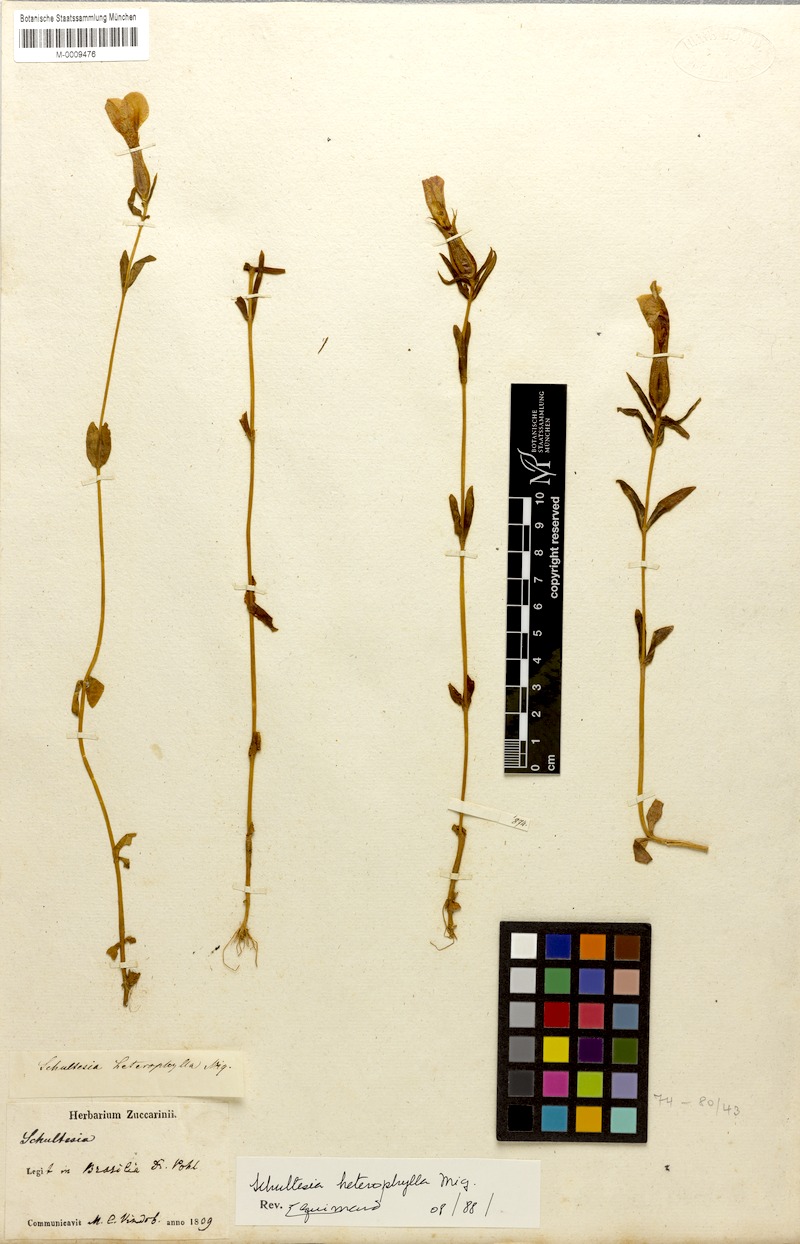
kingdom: Plantae
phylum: Tracheophyta
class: Magnoliopsida
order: Gentianales
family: Gentianaceae
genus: Schultesia
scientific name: Schultesia brachyptera
